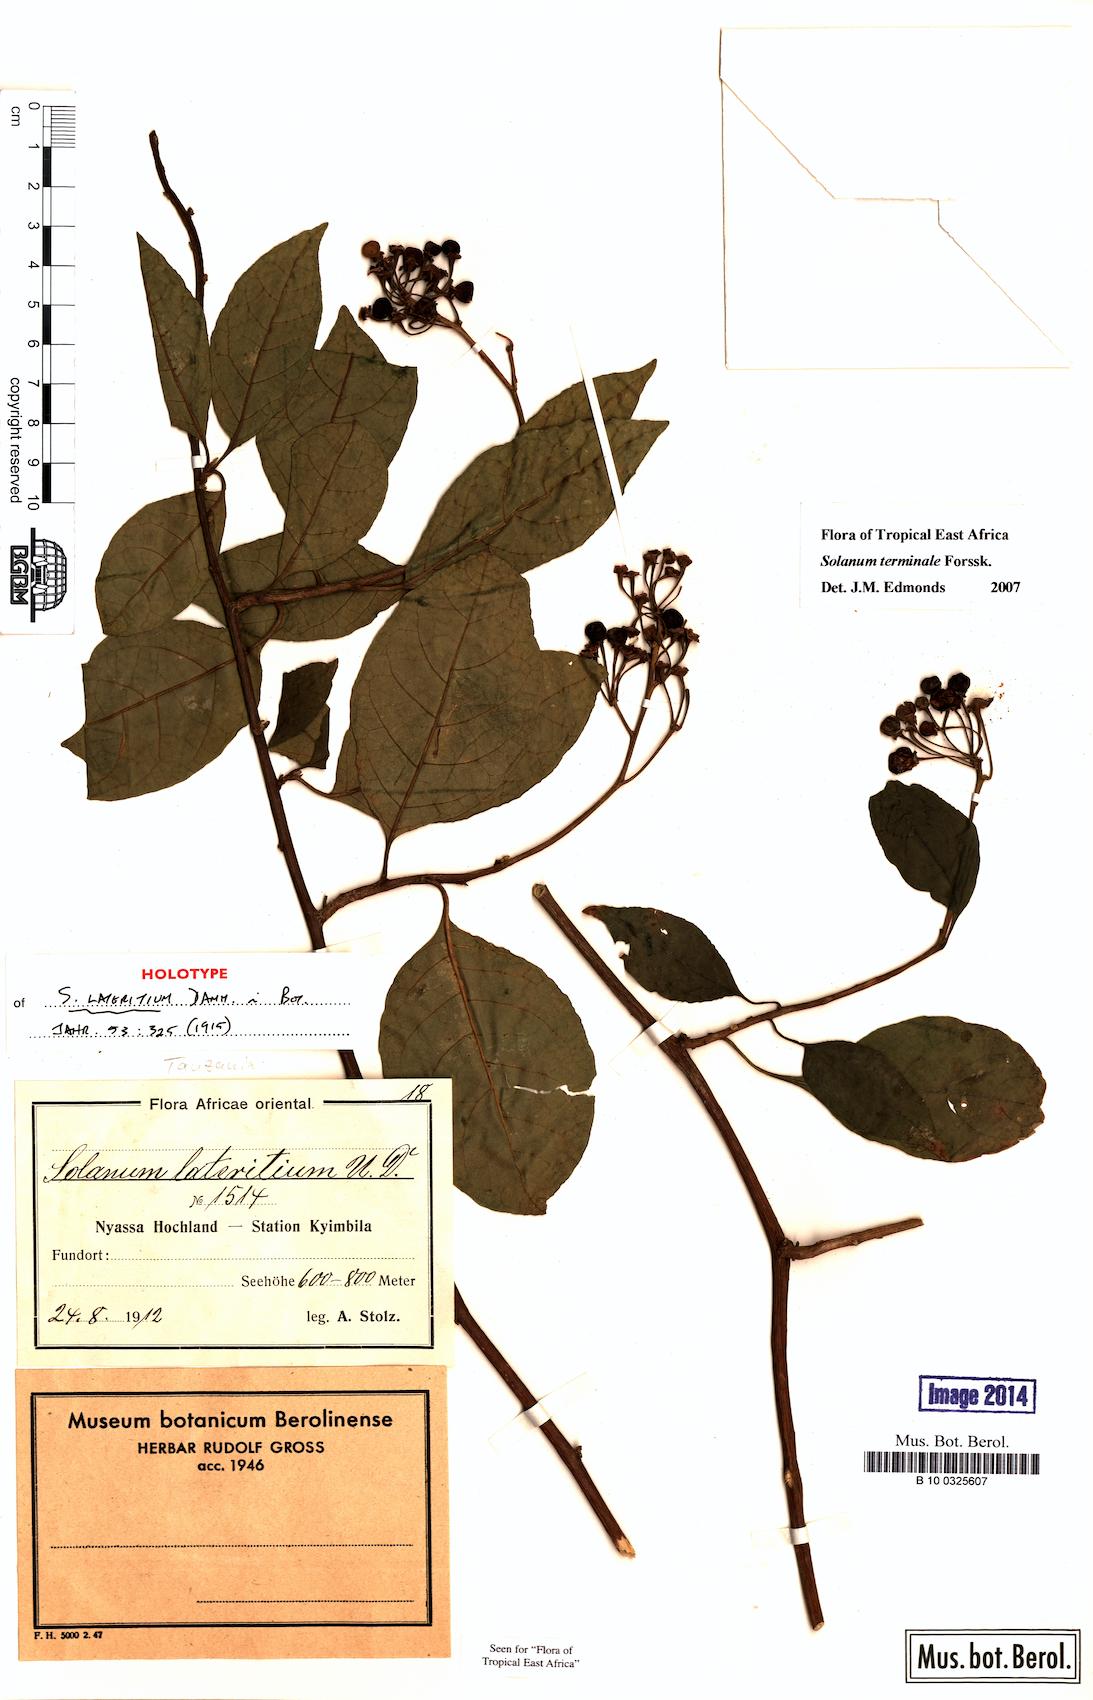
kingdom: Plantae
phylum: Tracheophyta
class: Magnoliopsida
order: Solanales
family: Solanaceae
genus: Solanum
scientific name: Solanum terminale
